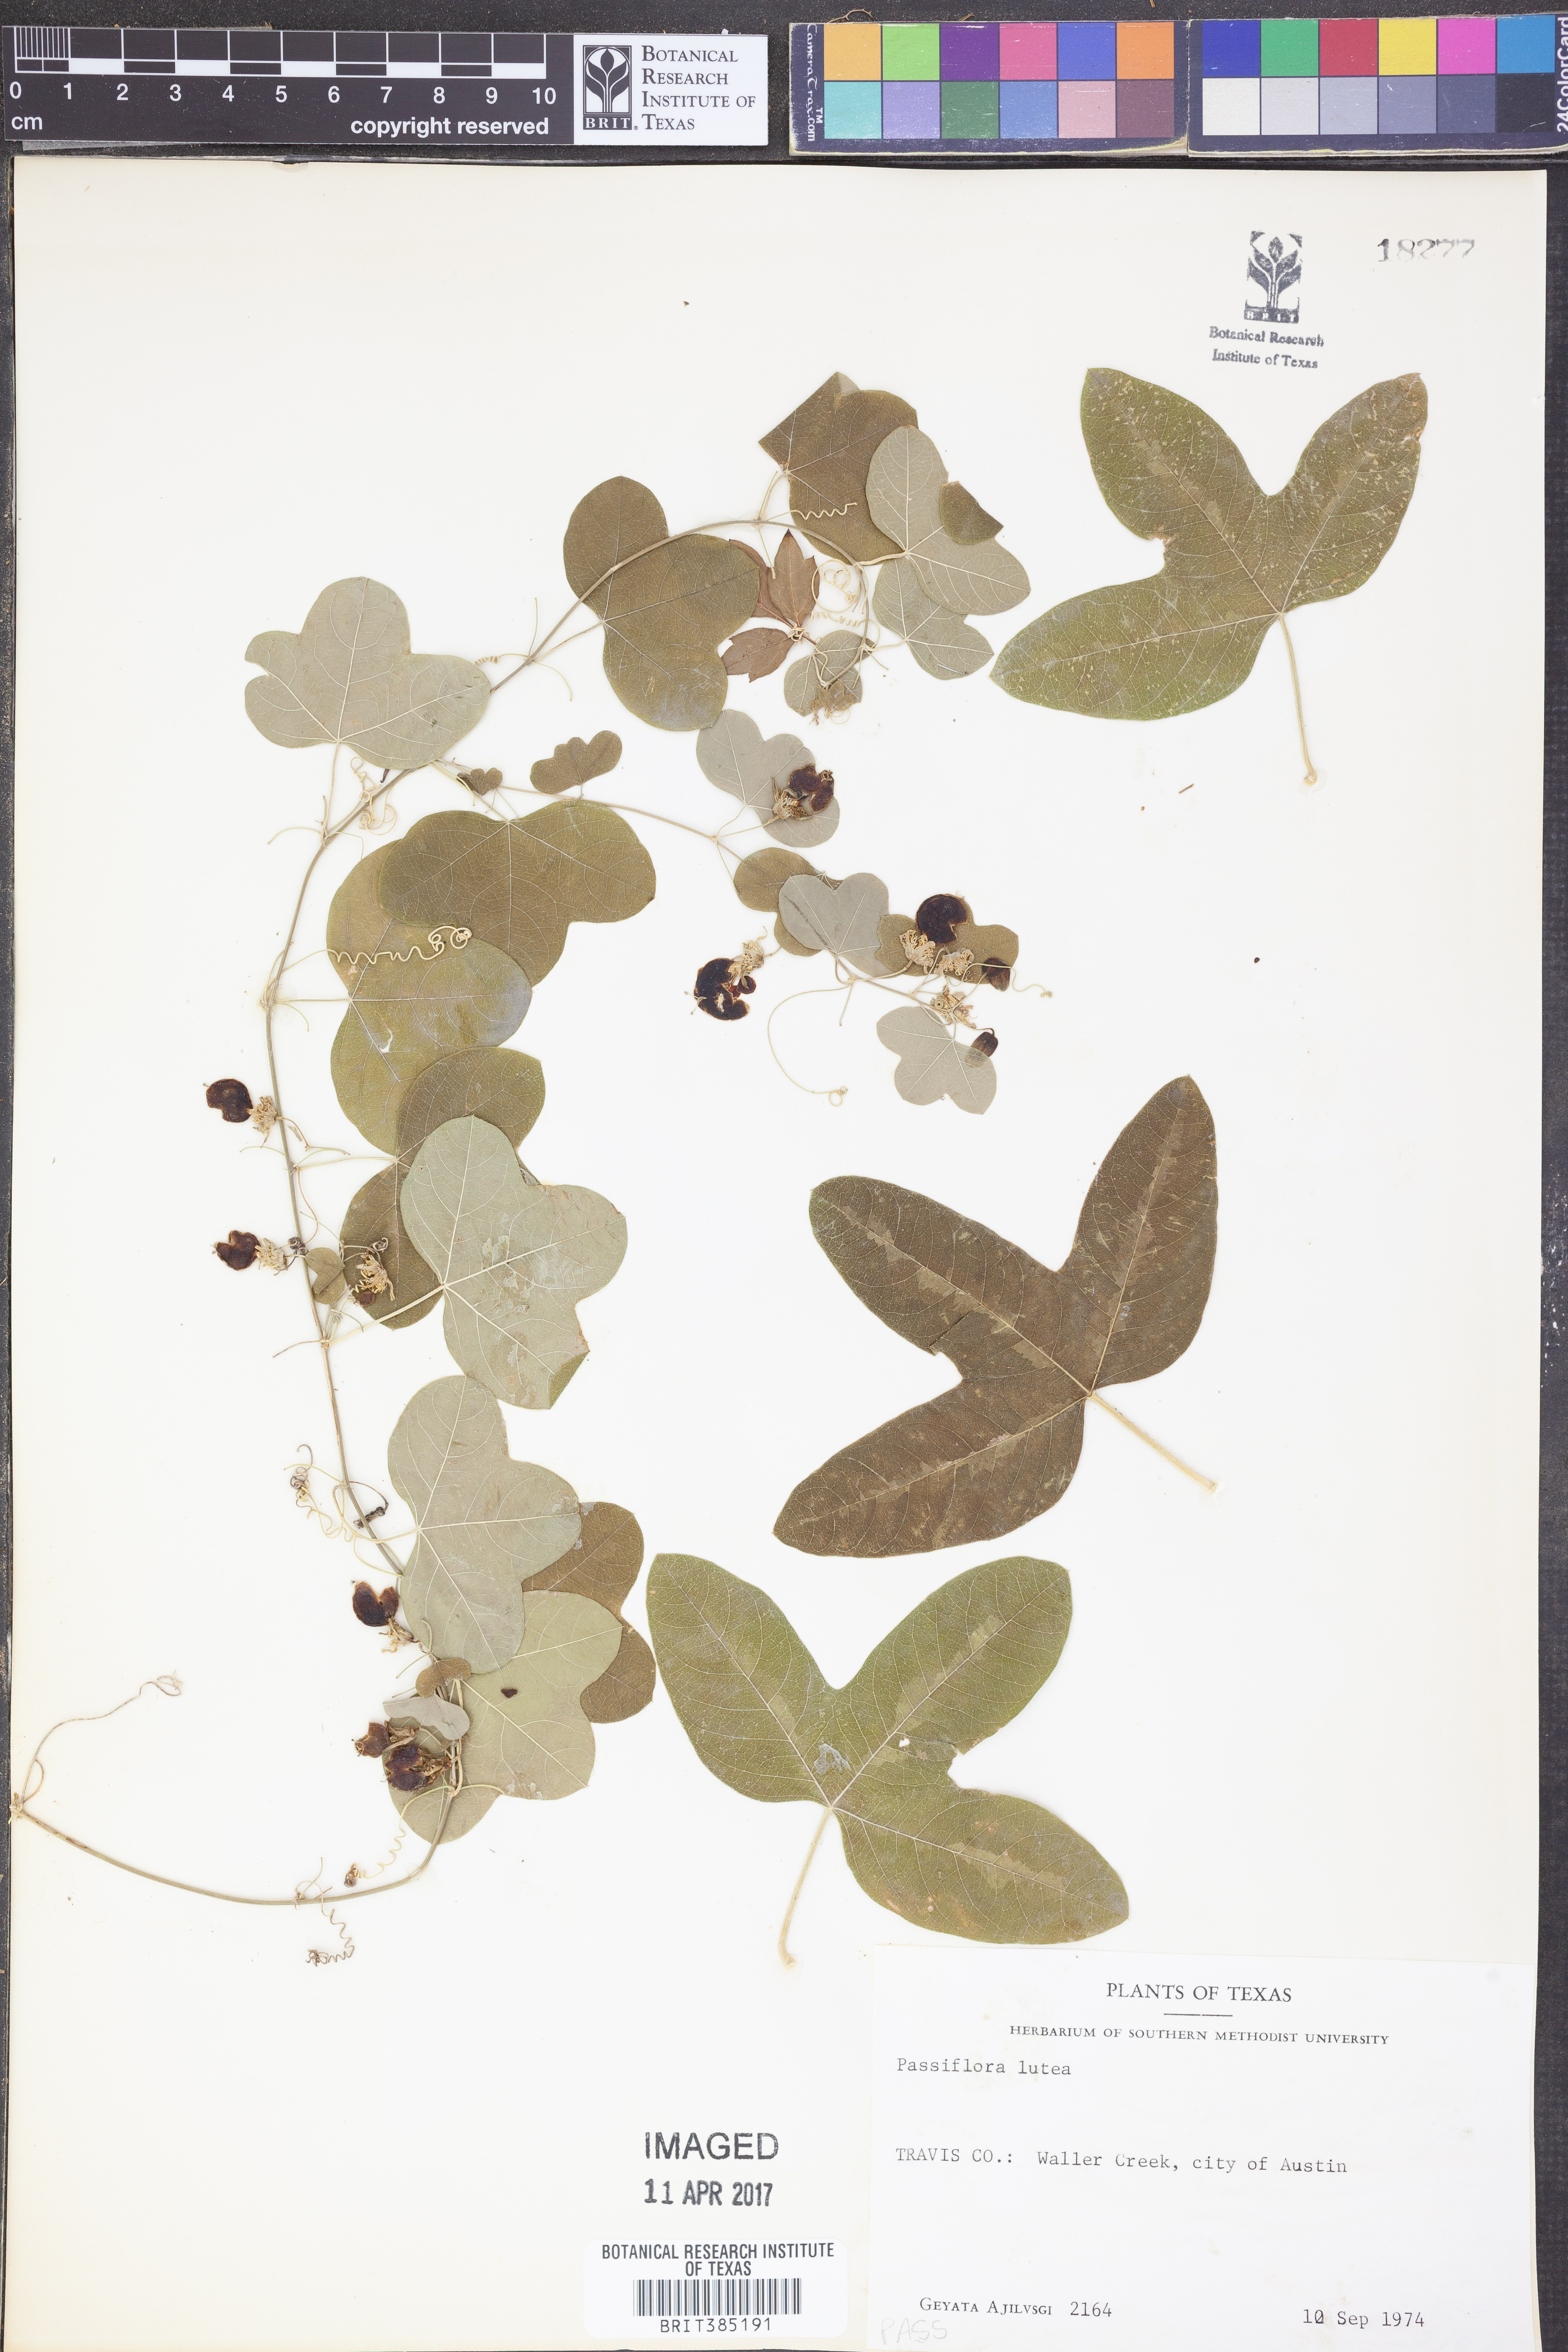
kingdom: Plantae
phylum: Tracheophyta
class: Magnoliopsida
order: Malpighiales
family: Passifloraceae
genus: Passiflora
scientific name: Passiflora lutea
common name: Yellow passionflower
